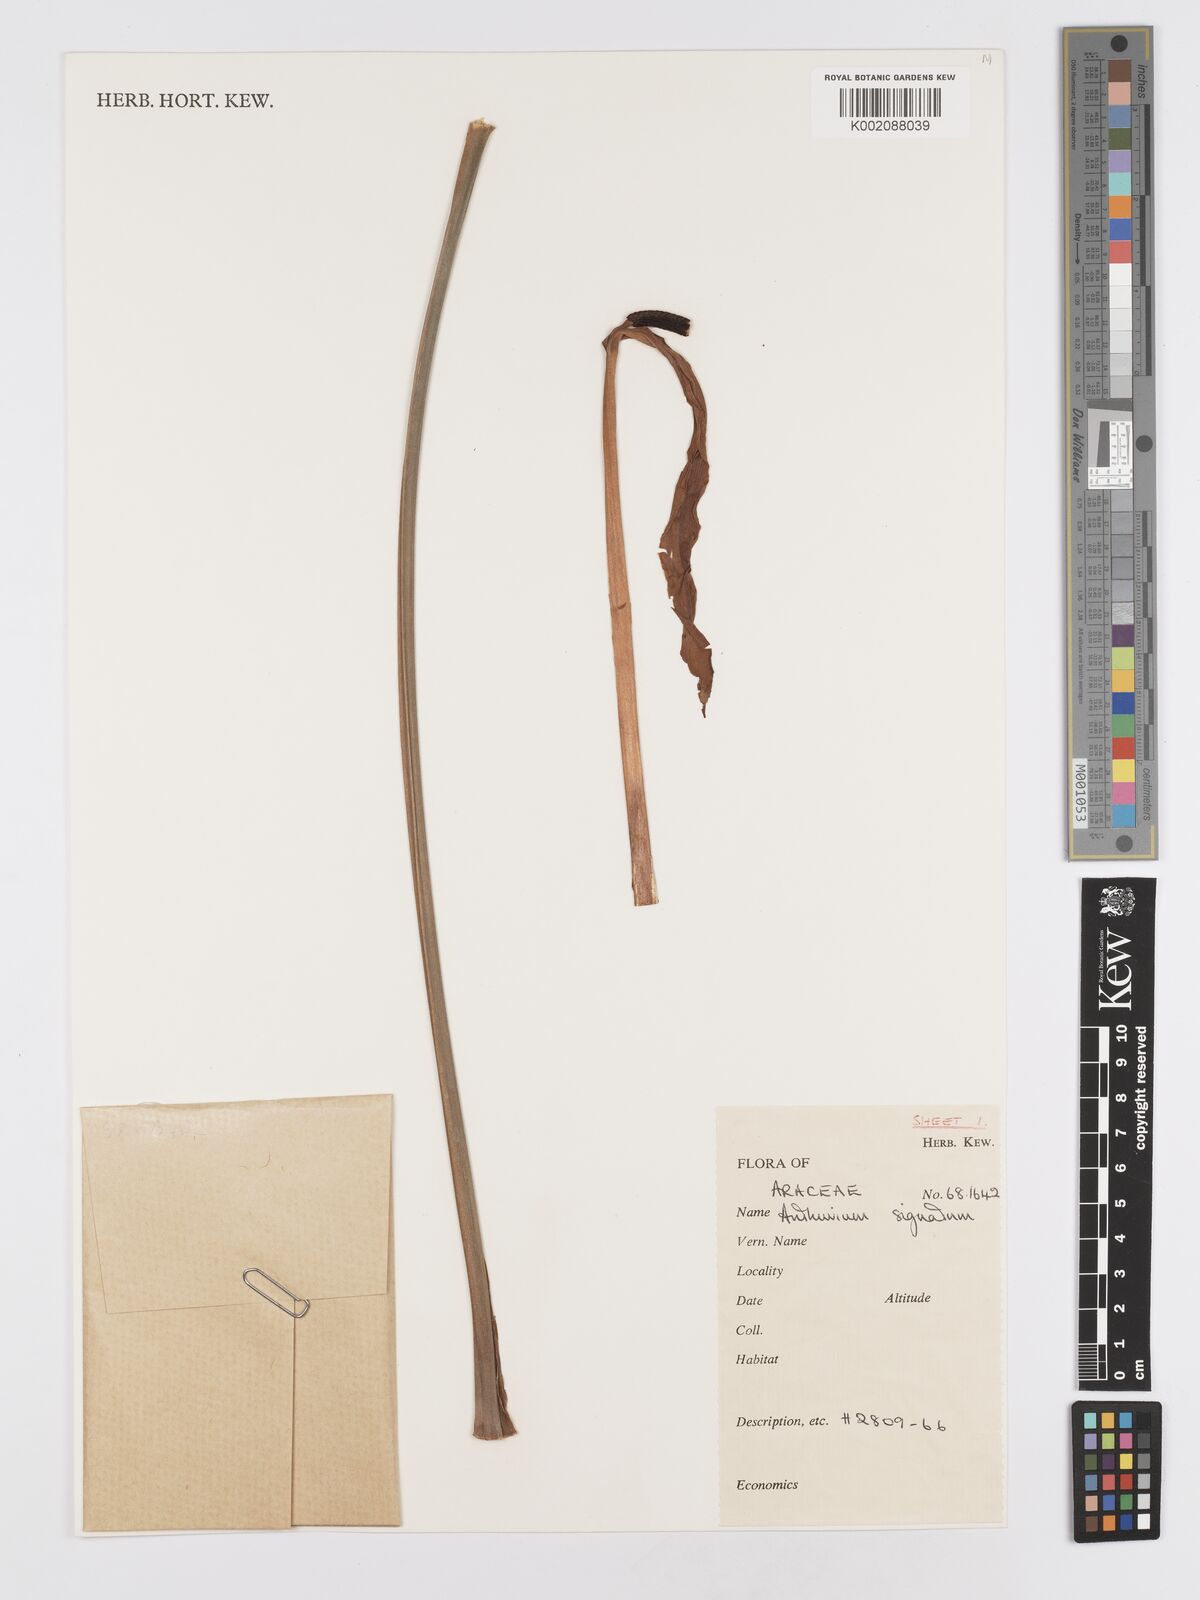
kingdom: Plantae
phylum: Tracheophyta
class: Liliopsida
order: Alismatales
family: Araceae
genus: Anthurium
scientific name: Anthurium signatum
